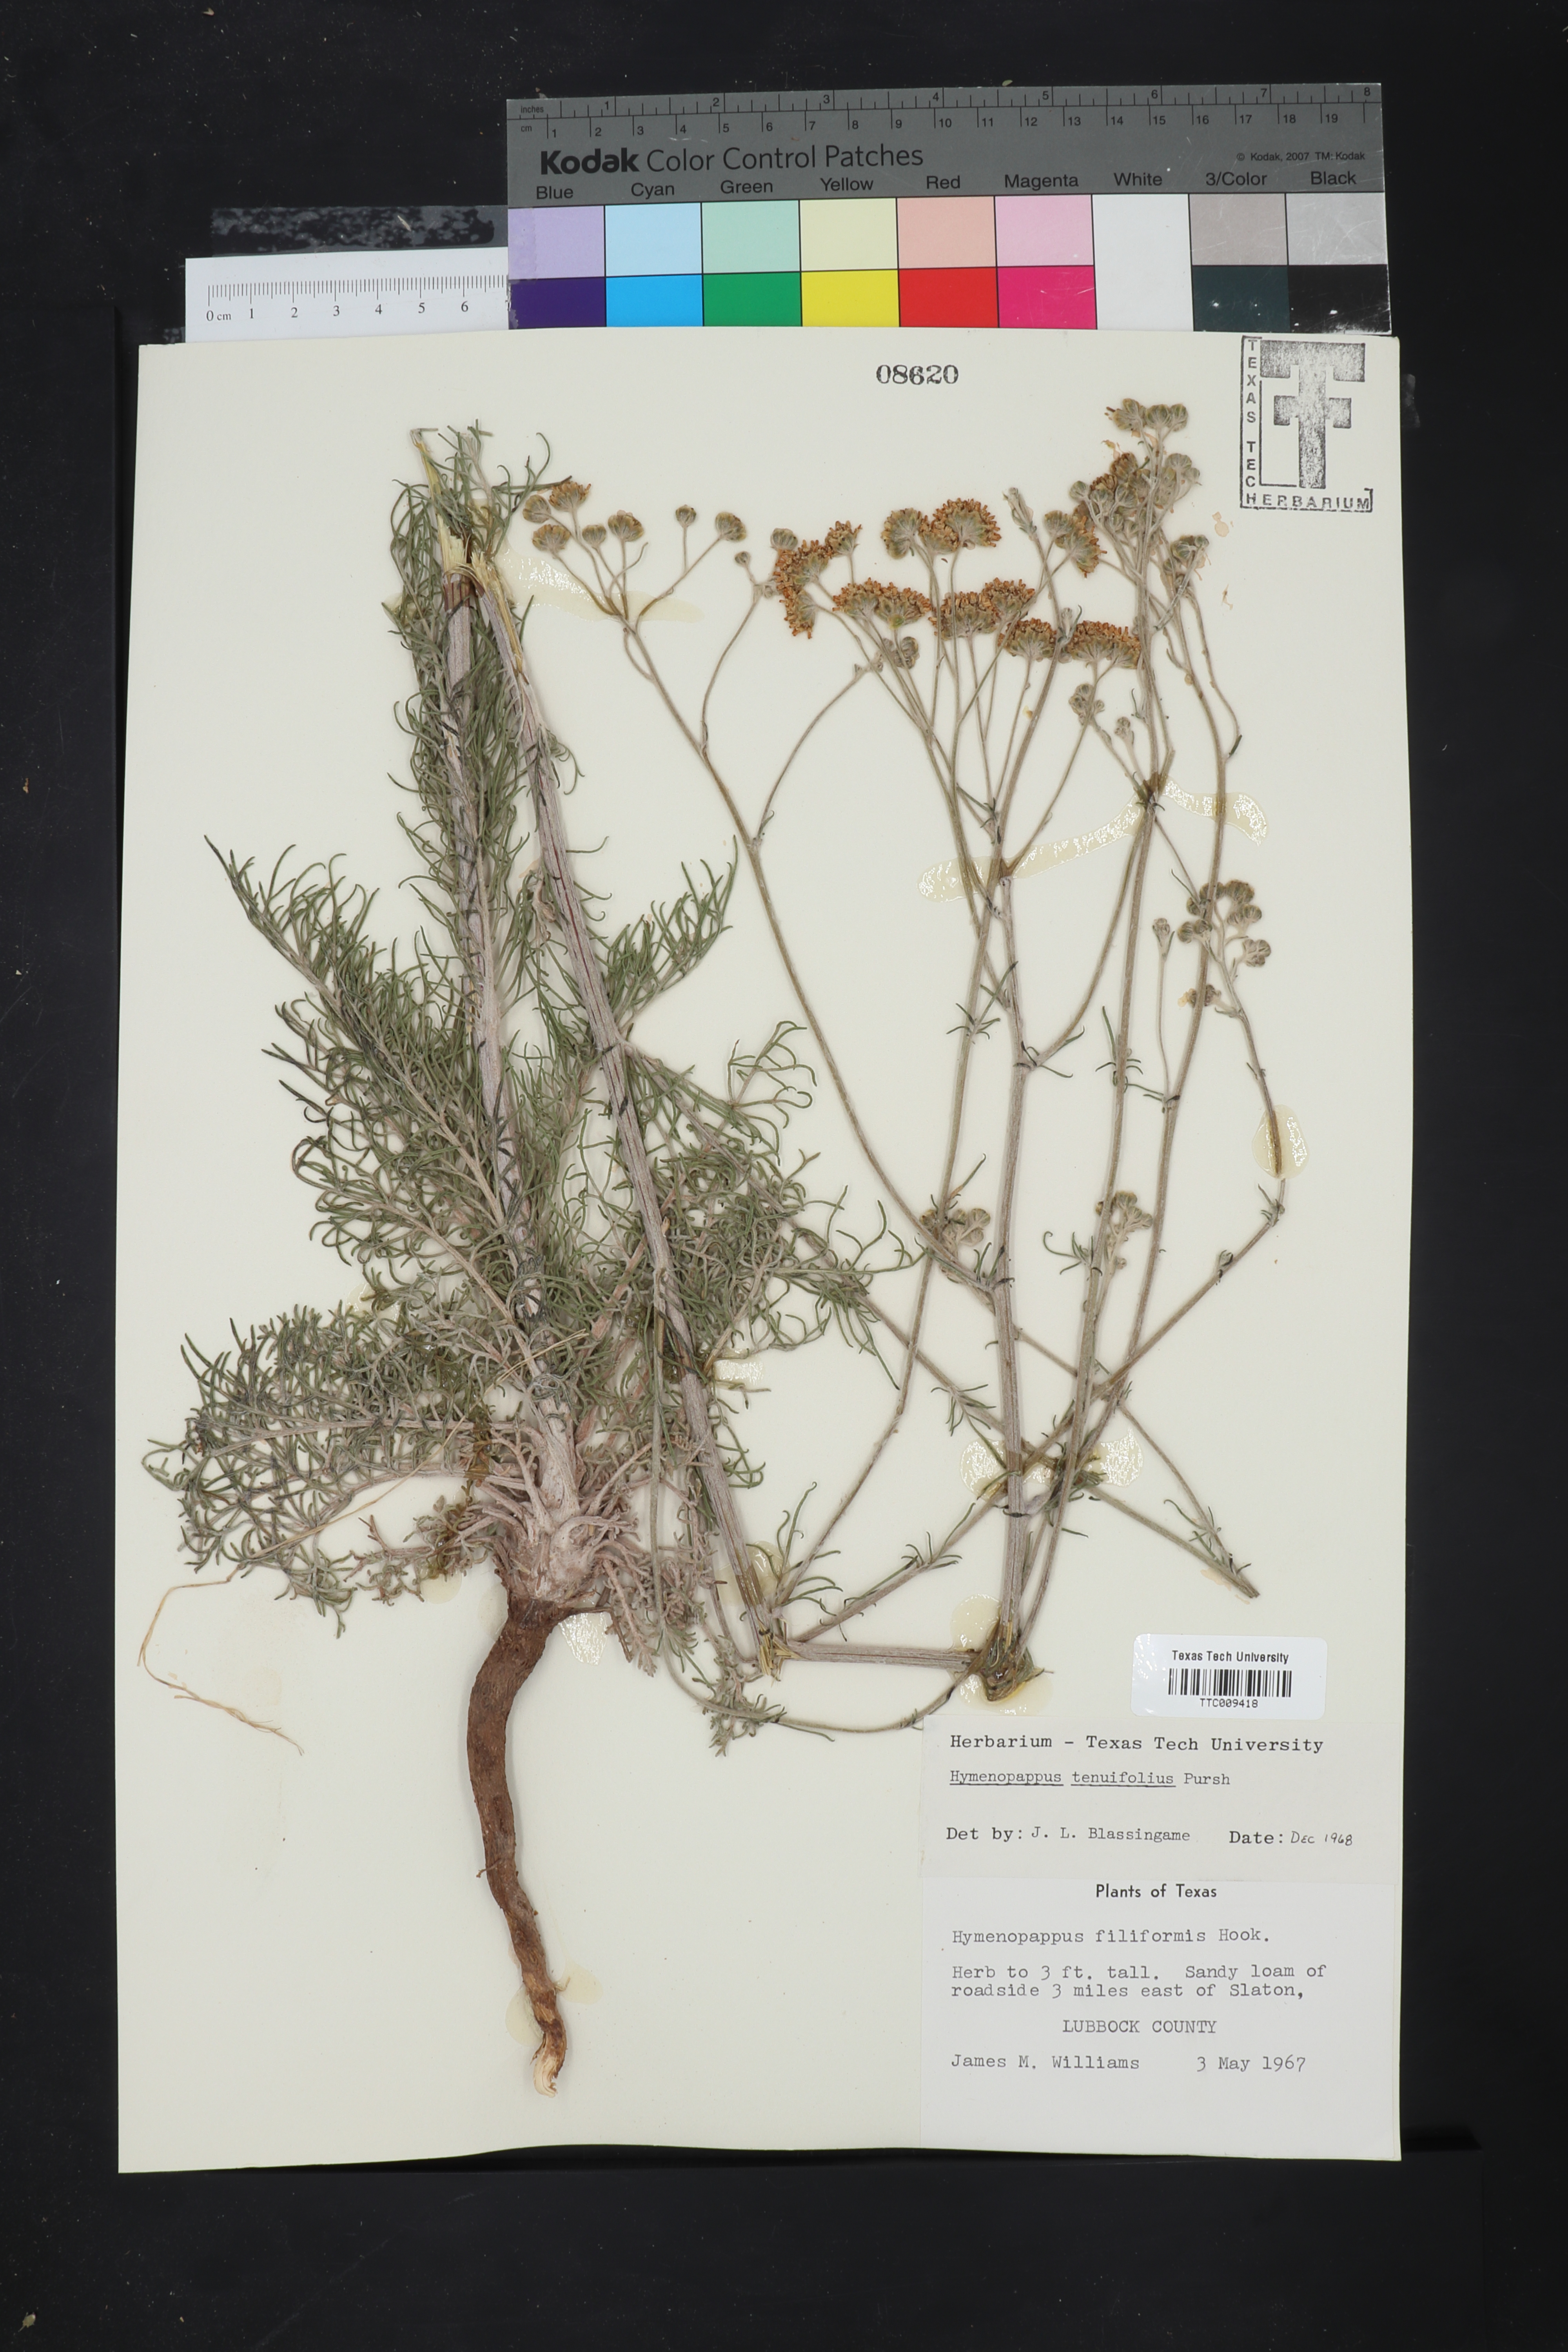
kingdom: Plantae
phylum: Tracheophyta
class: Magnoliopsida
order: Asterales
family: Asteraceae
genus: Hymenopappus
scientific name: Hymenopappus tenuifolius
